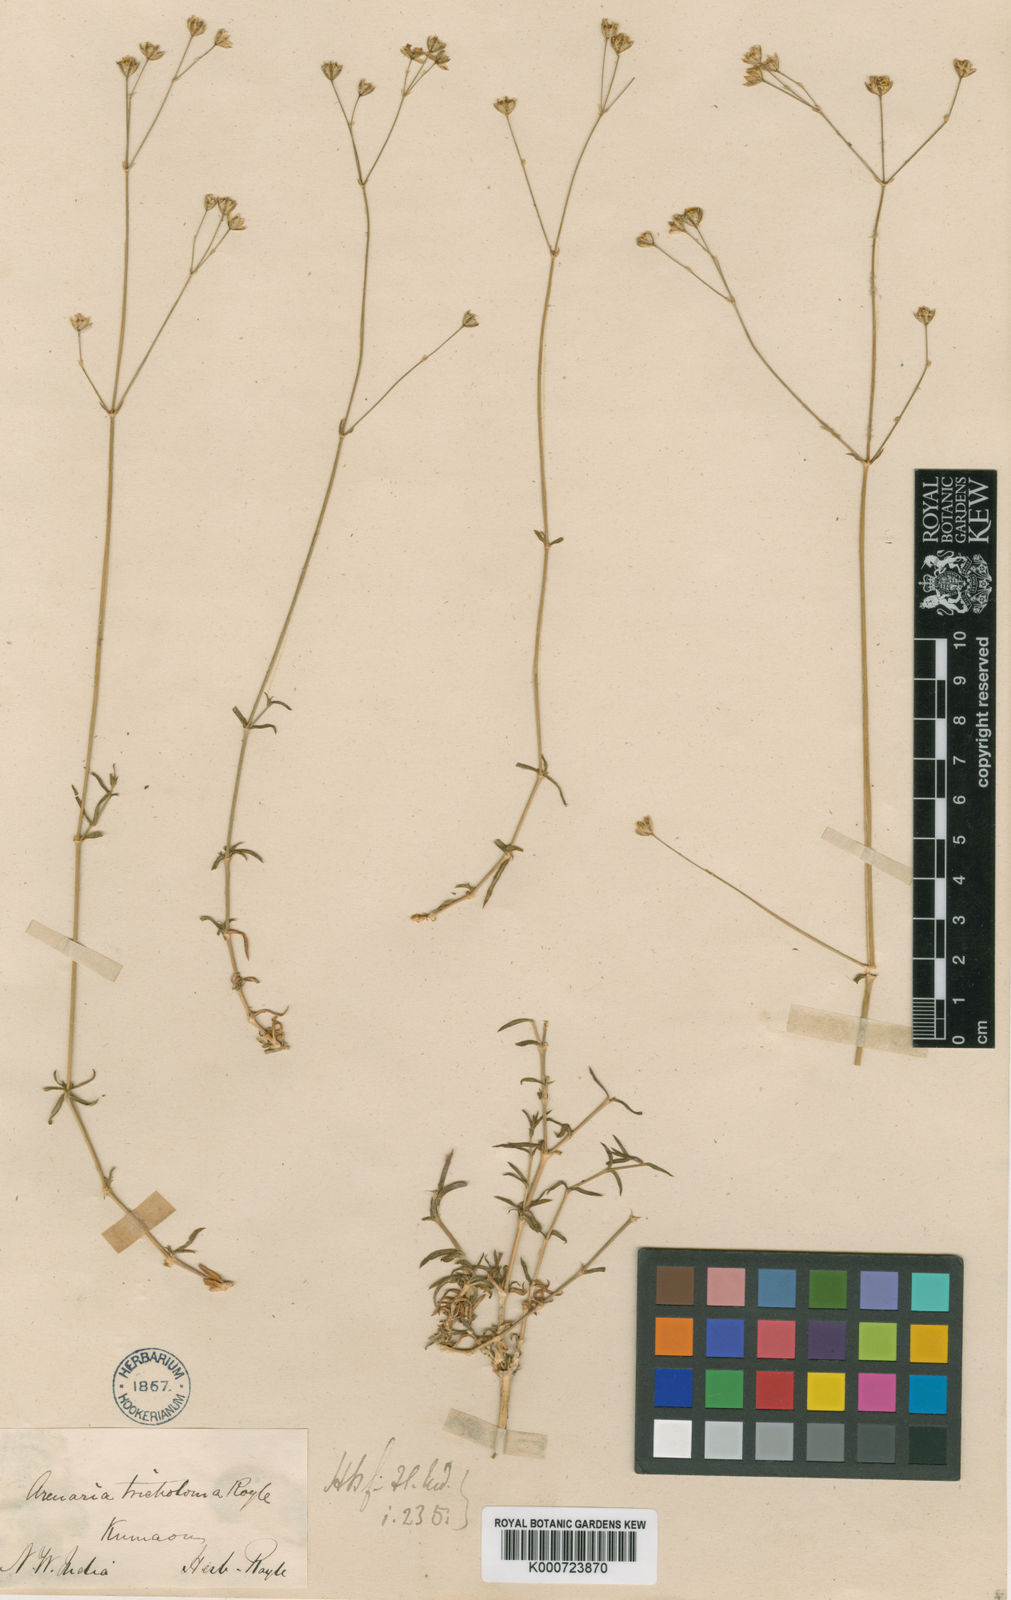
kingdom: Plantae
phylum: Tracheophyta
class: Magnoliopsida
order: Caryophyllales
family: Caryophyllaceae
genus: Arenaria
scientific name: Arenaria compressa
